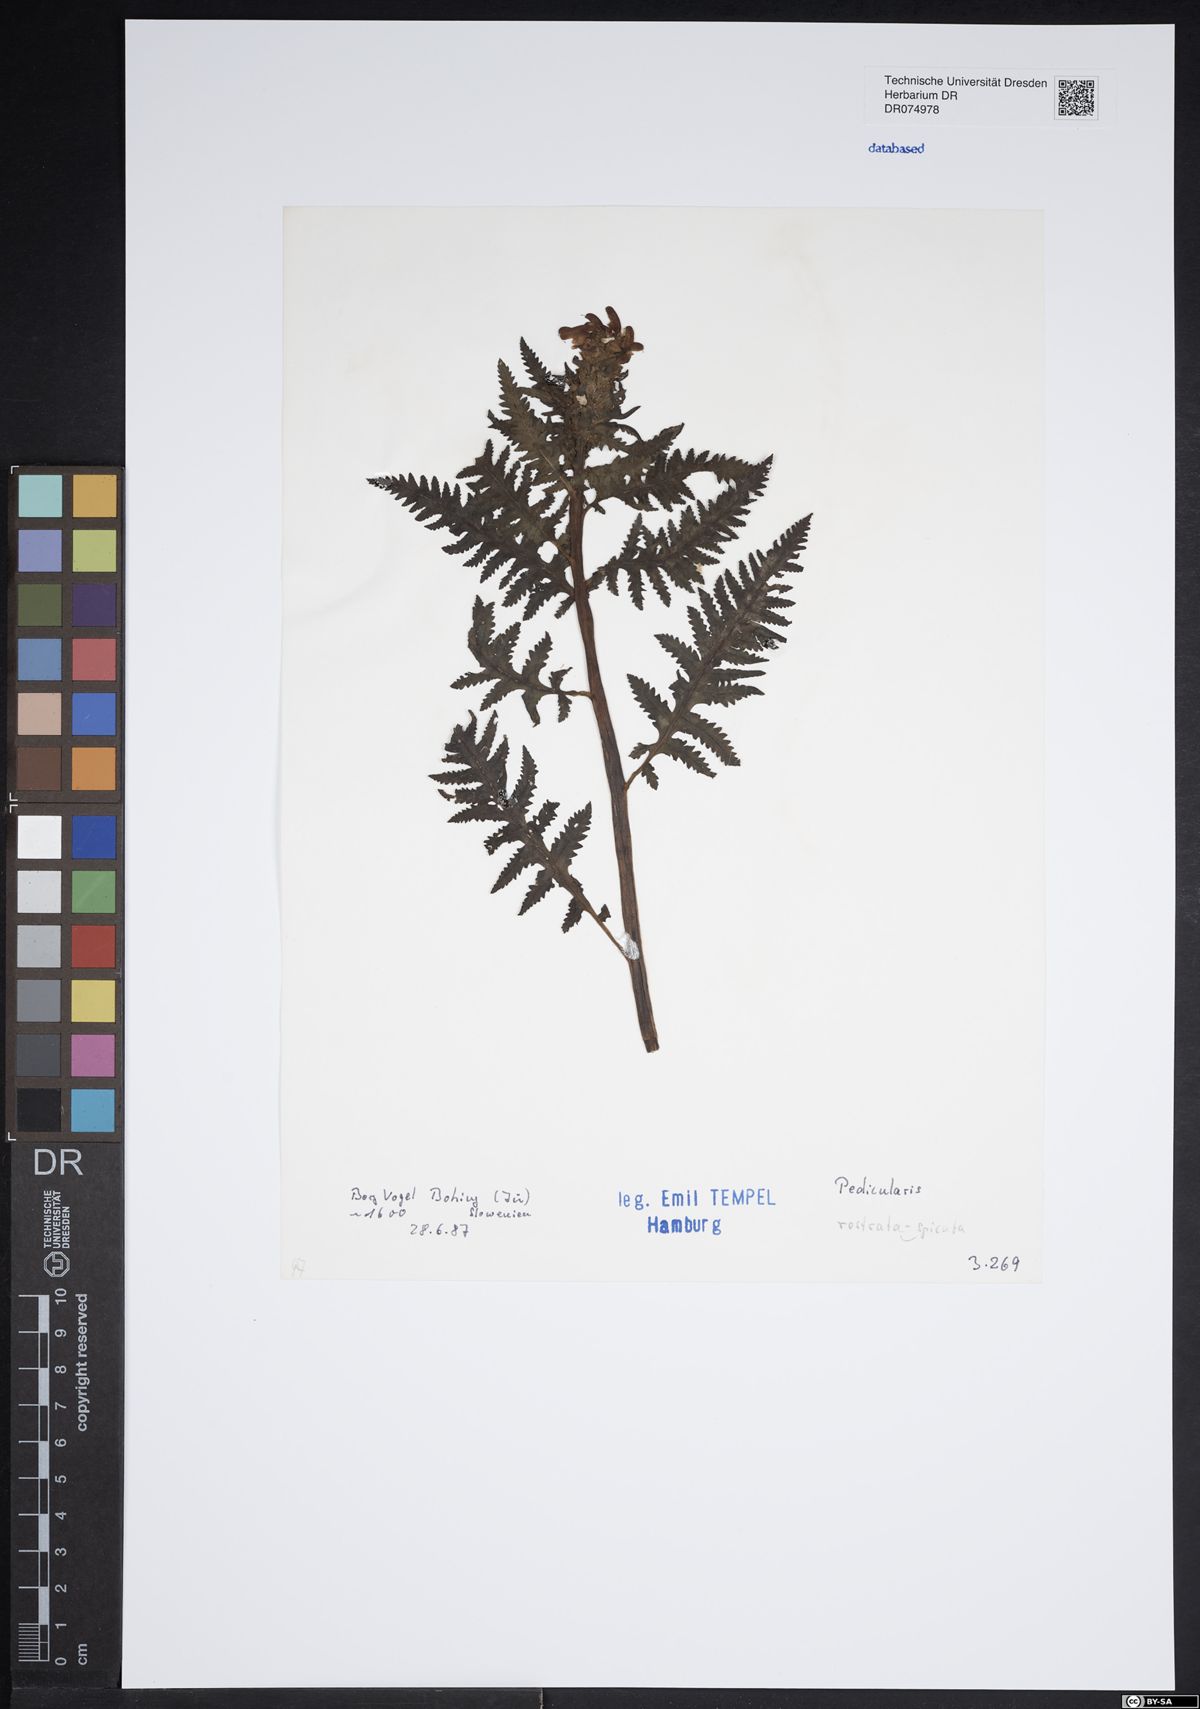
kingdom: Plantae
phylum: Tracheophyta
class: Magnoliopsida
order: Lamiales
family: Orobanchaceae
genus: Pedicularis
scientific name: Pedicularis
